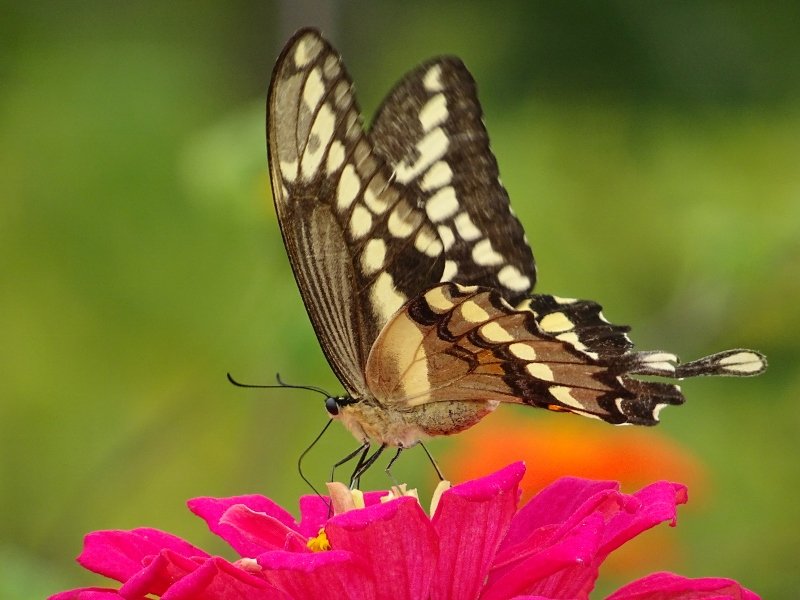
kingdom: Animalia
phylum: Arthropoda
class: Insecta
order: Lepidoptera
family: Papilionidae
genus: Papilio
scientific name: Papilio cresphontes
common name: Eastern Giant Swallowtail
